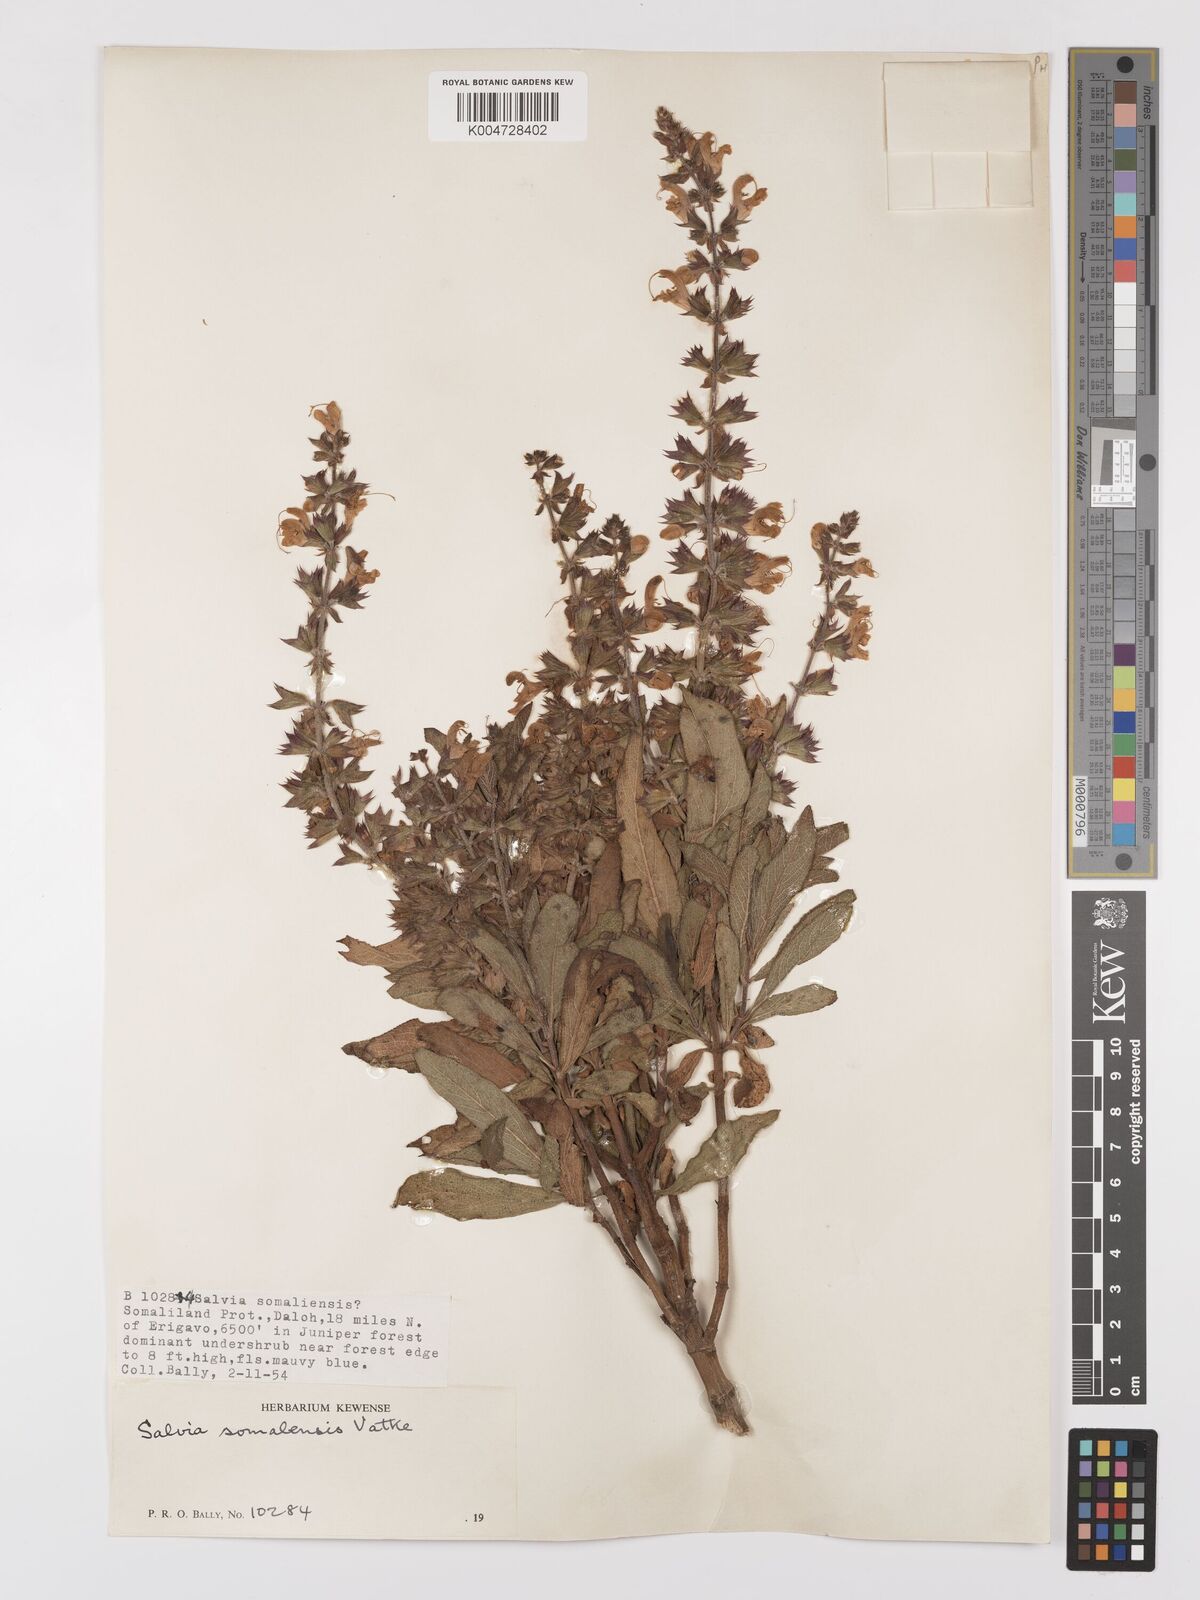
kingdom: Plantae
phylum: Tracheophyta
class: Magnoliopsida
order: Lamiales
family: Lamiaceae
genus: Salvia
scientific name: Salvia somalensis
